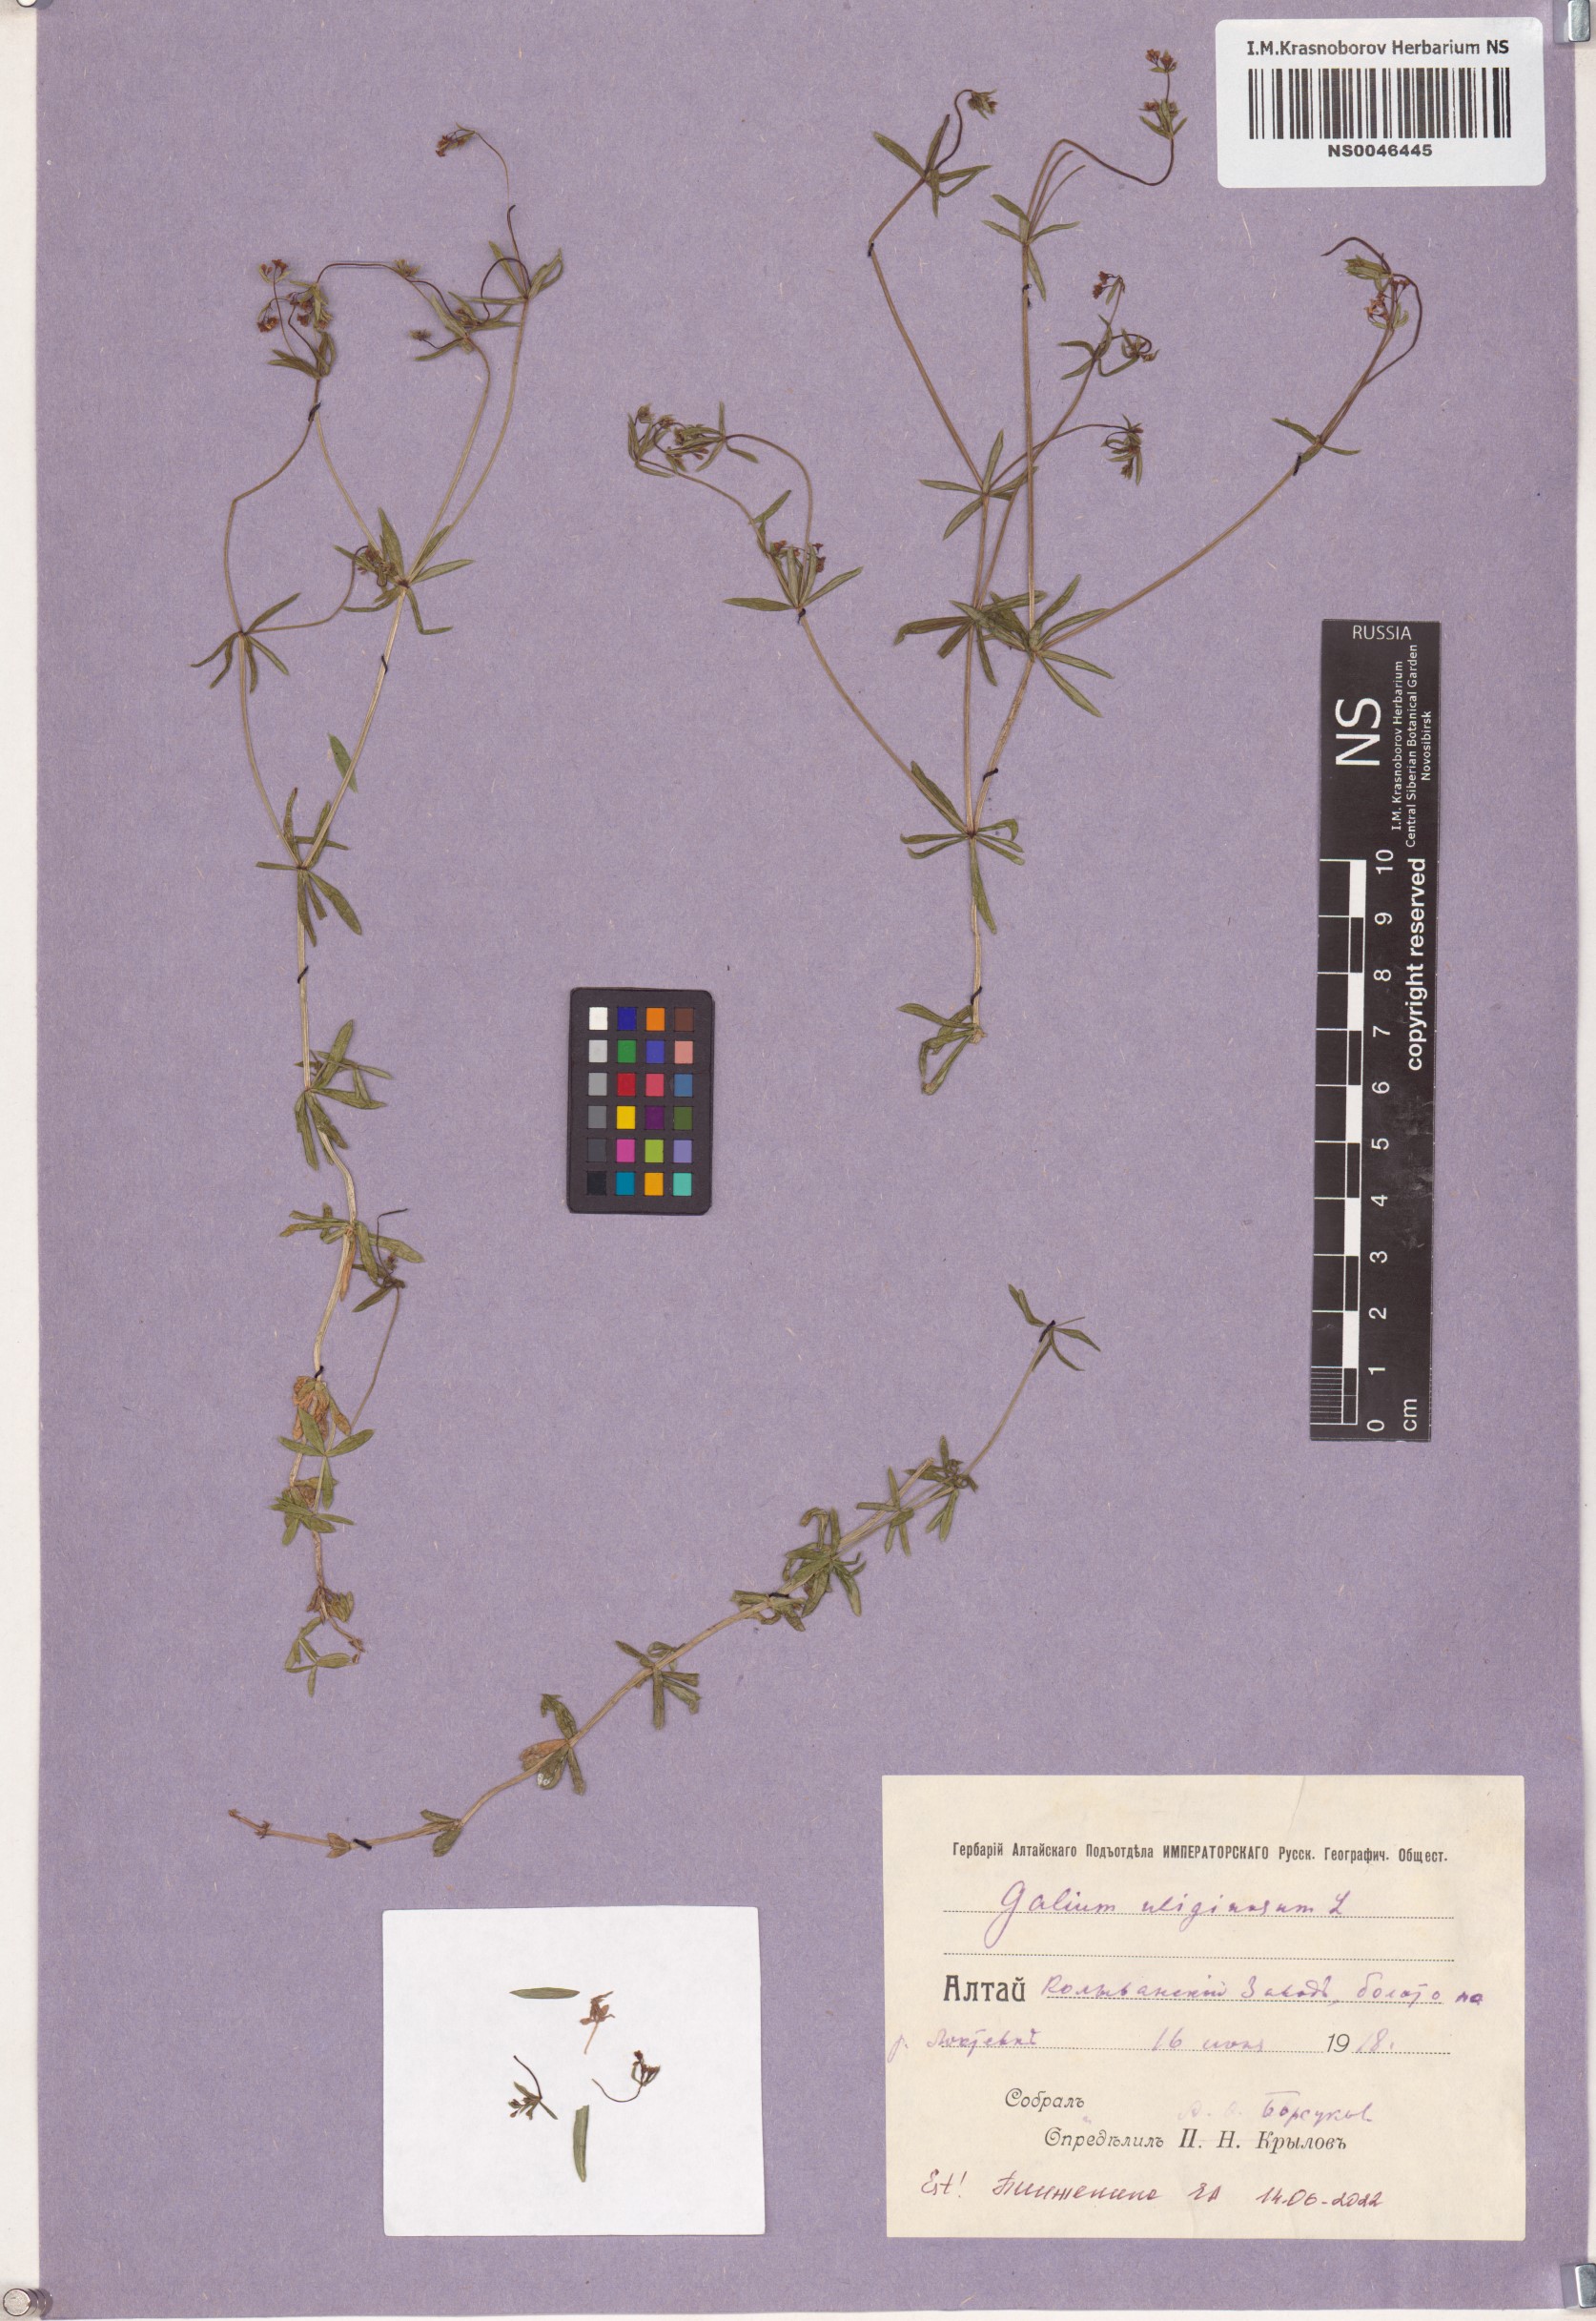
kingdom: Plantae
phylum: Tracheophyta
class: Magnoliopsida
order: Gentianales
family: Rubiaceae
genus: Galium
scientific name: Galium uliginosum
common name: Fen bedstraw
